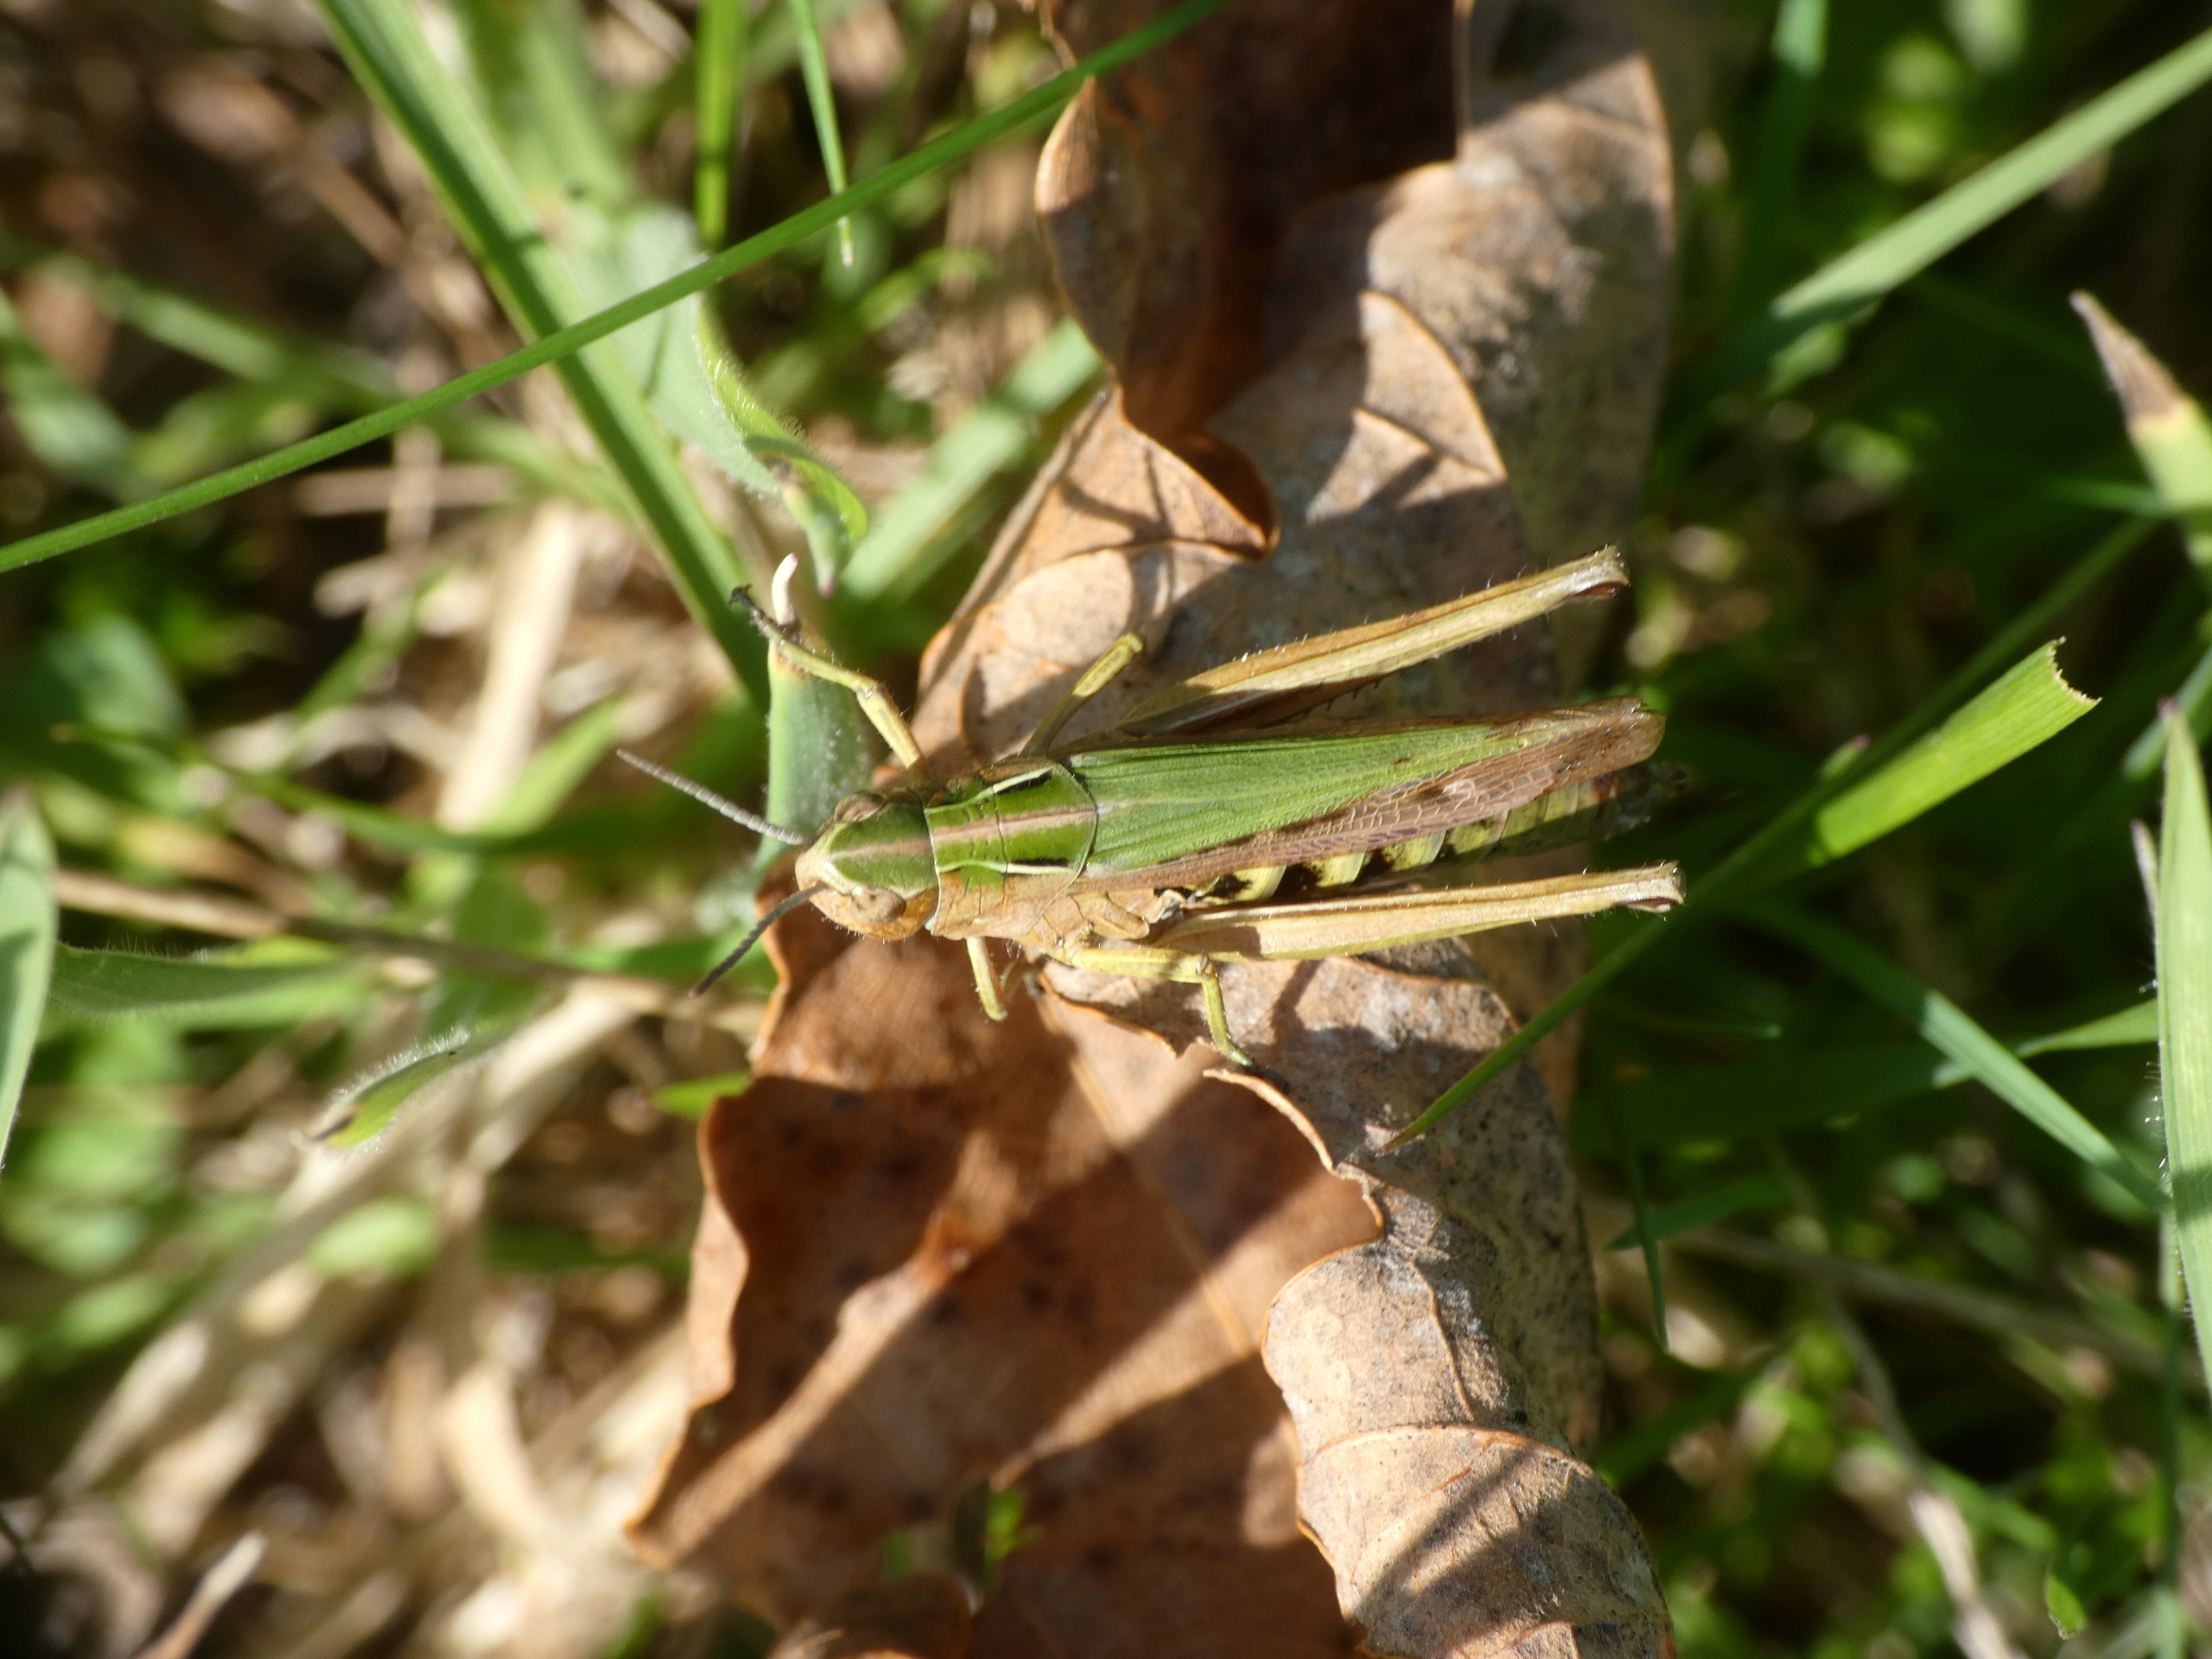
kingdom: Animalia
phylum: Arthropoda
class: Insecta
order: Orthoptera
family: Acrididae
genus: Omocestus
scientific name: Omocestus viridulus
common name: Lynggræshoppe
